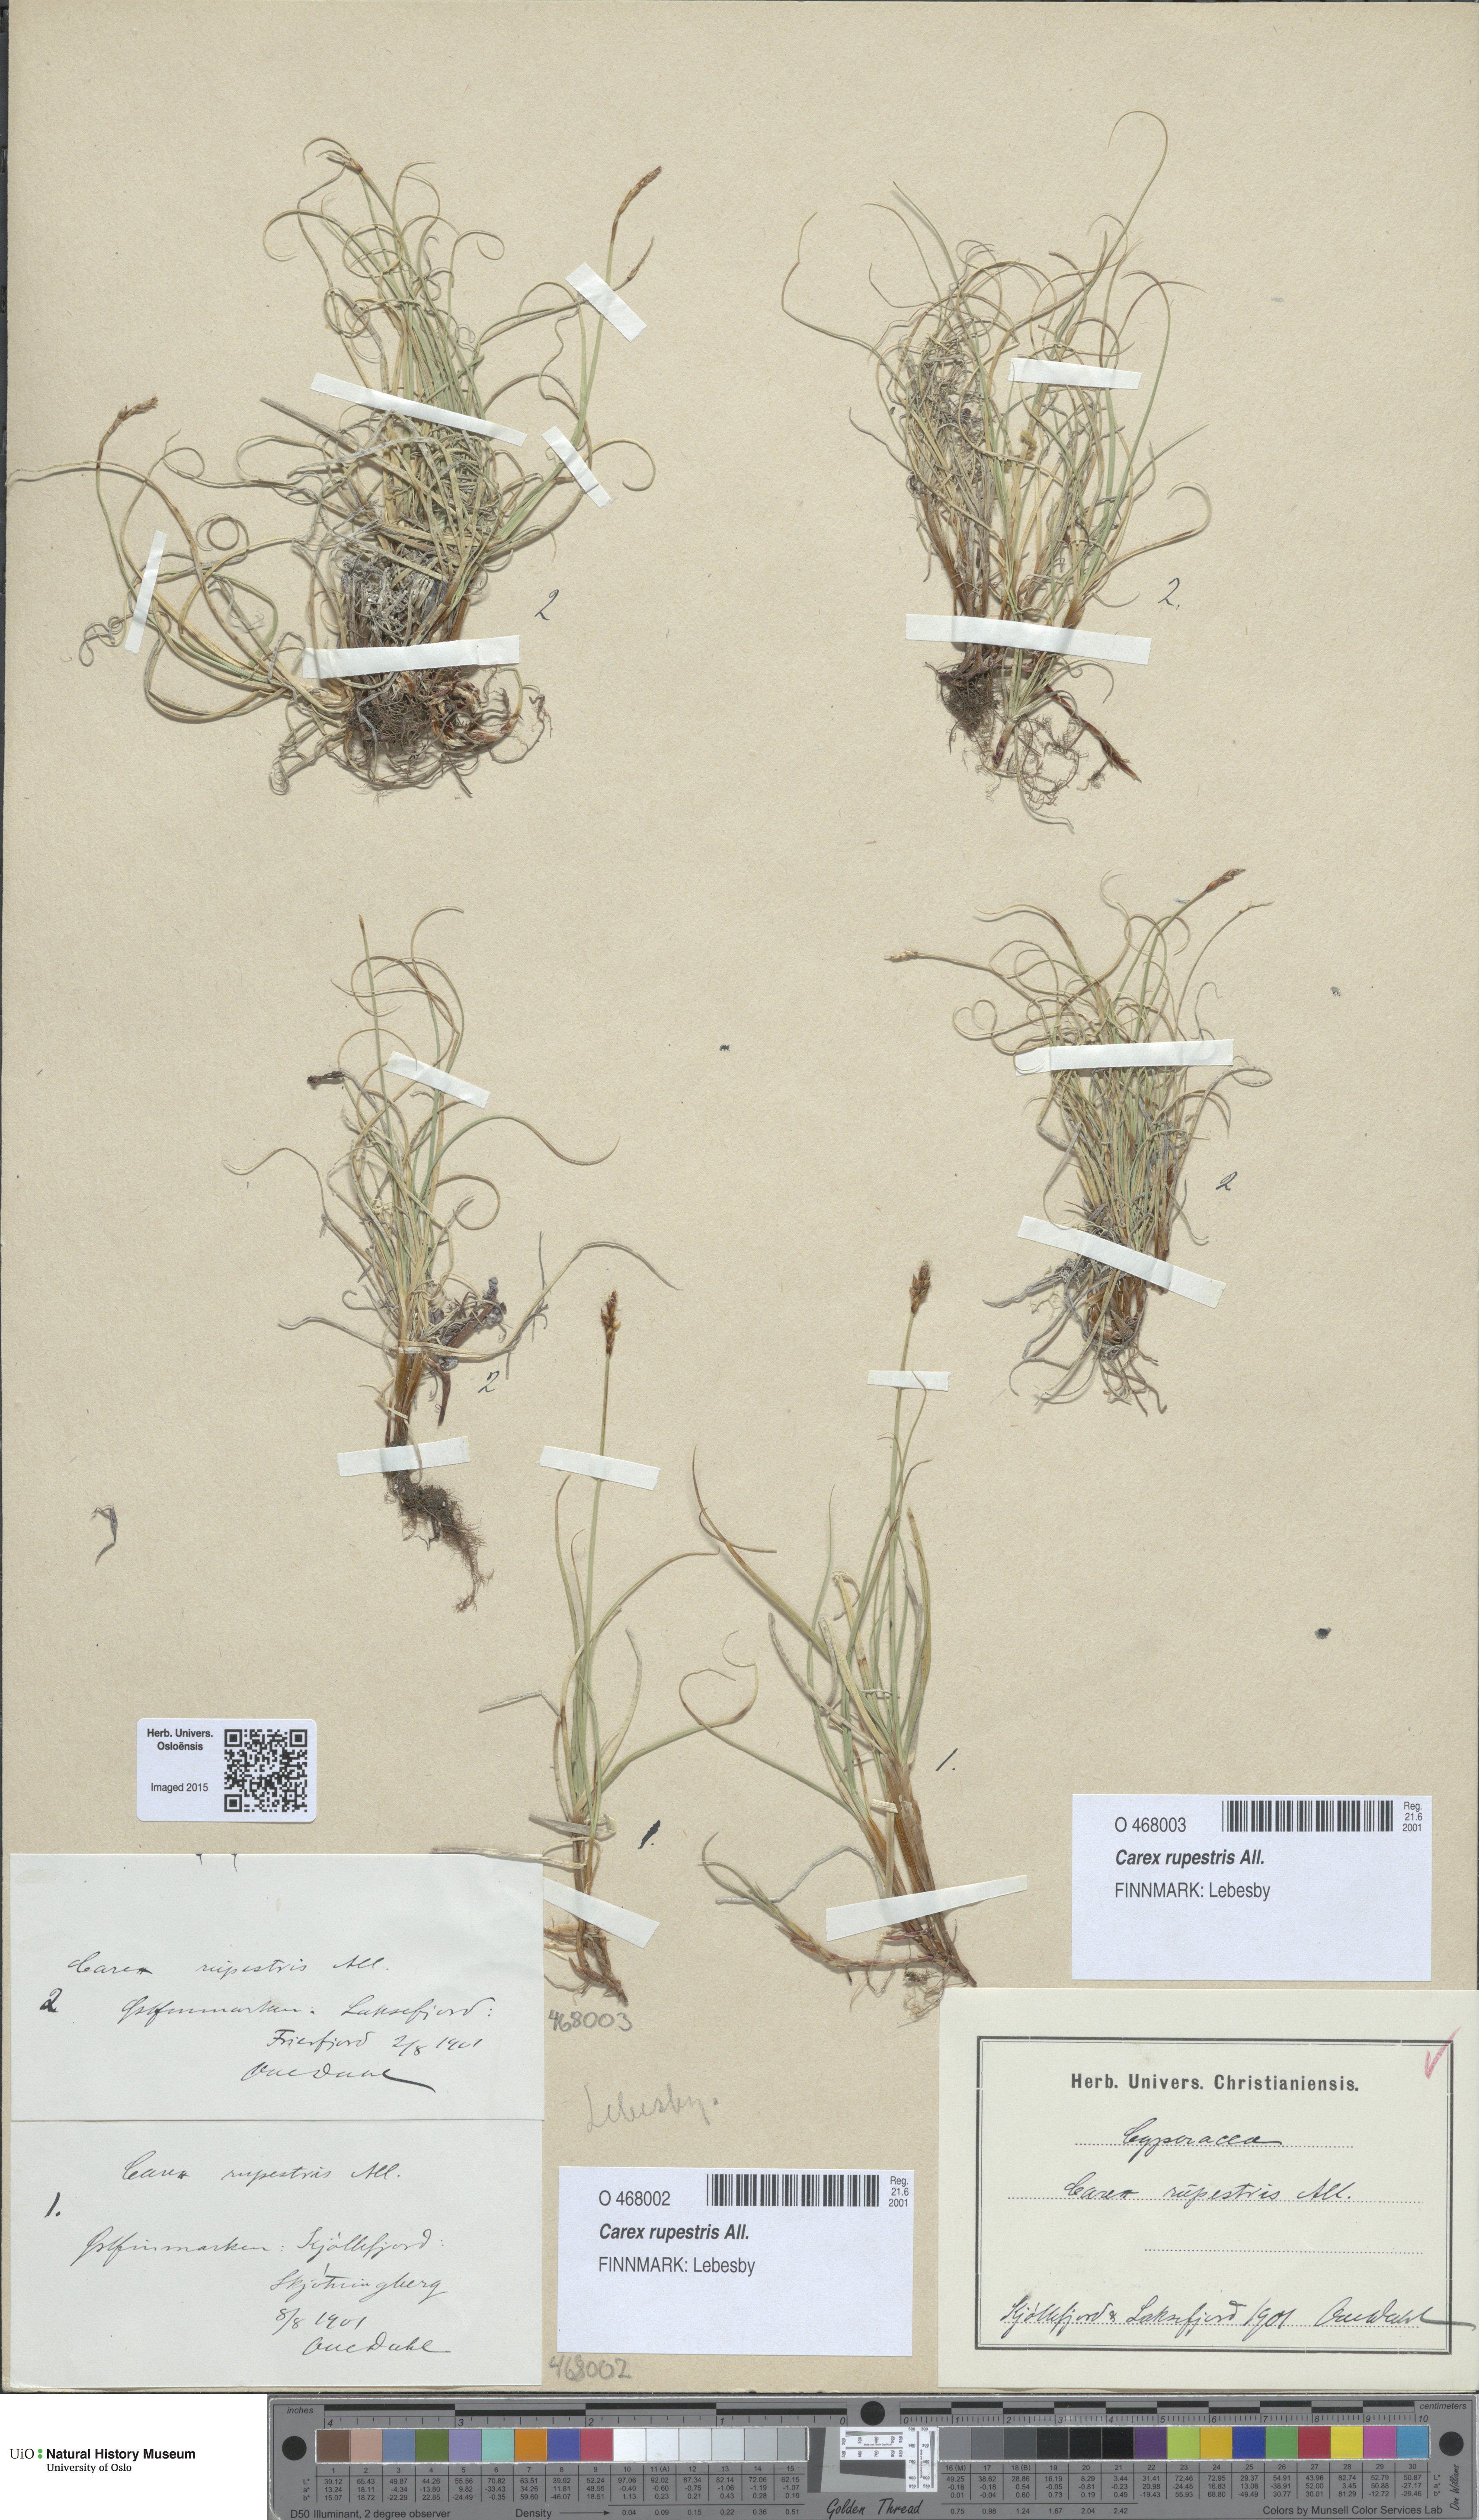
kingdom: Plantae
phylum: Tracheophyta
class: Liliopsida
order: Poales
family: Cyperaceae
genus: Carex
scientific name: Carex rupestris
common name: Rock sedge
